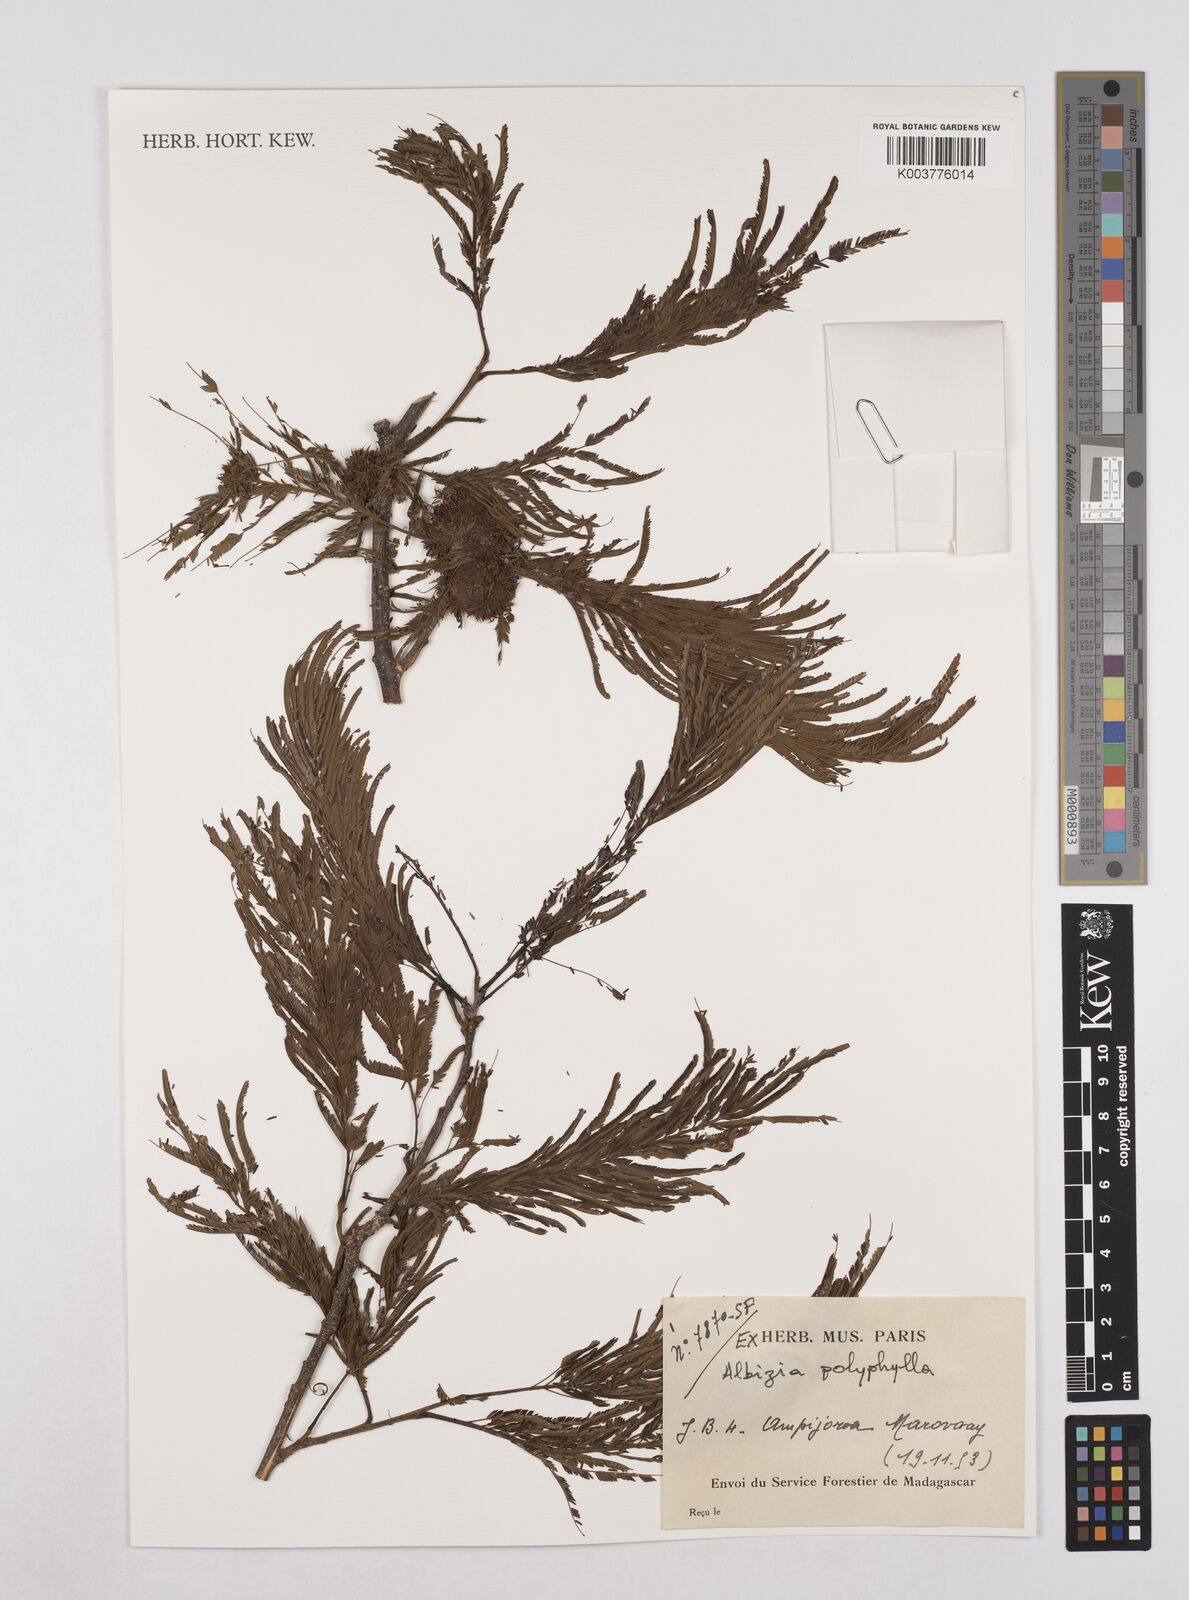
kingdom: Plantae
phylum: Tracheophyta
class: Magnoliopsida
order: Fabales
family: Fabaceae
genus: Albizia
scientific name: Albizia polyphylla
